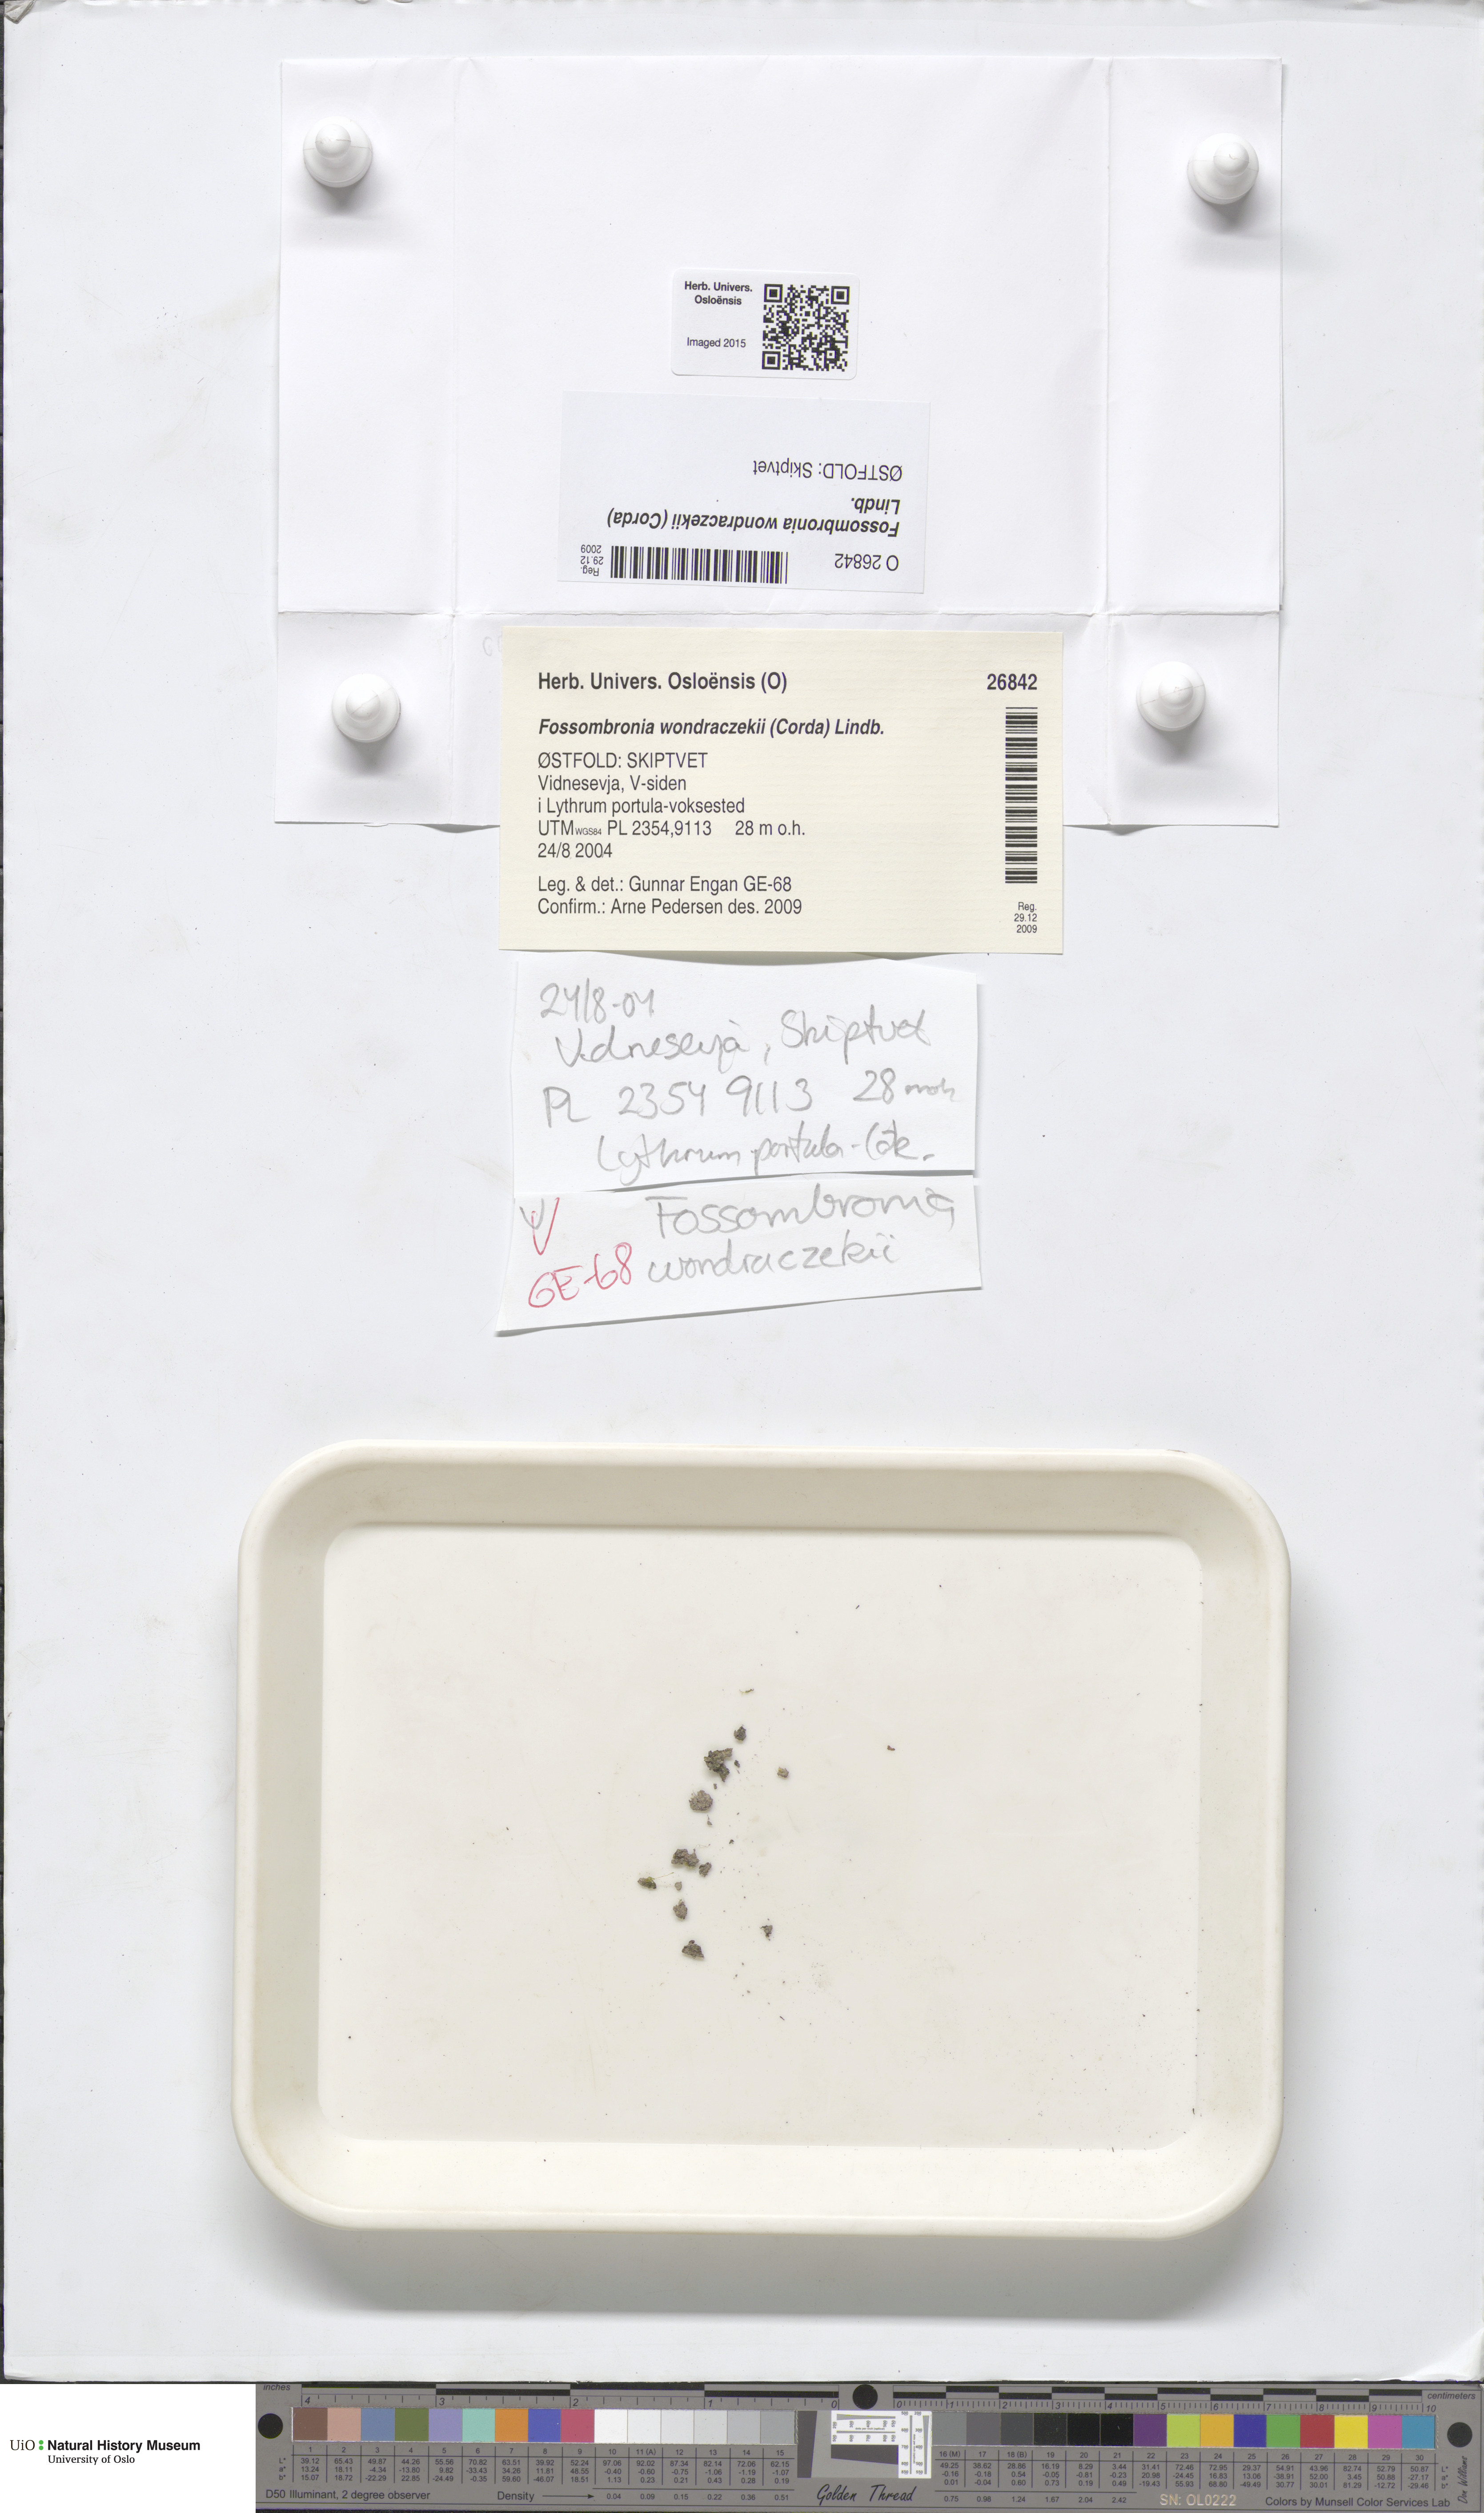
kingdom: Plantae
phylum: Marchantiophyta
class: Jungermanniopsida
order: Fossombroniales
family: Fossombroniaceae
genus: Fossombronia
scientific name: Fossombronia wondraczekii
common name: Acid frillwort
